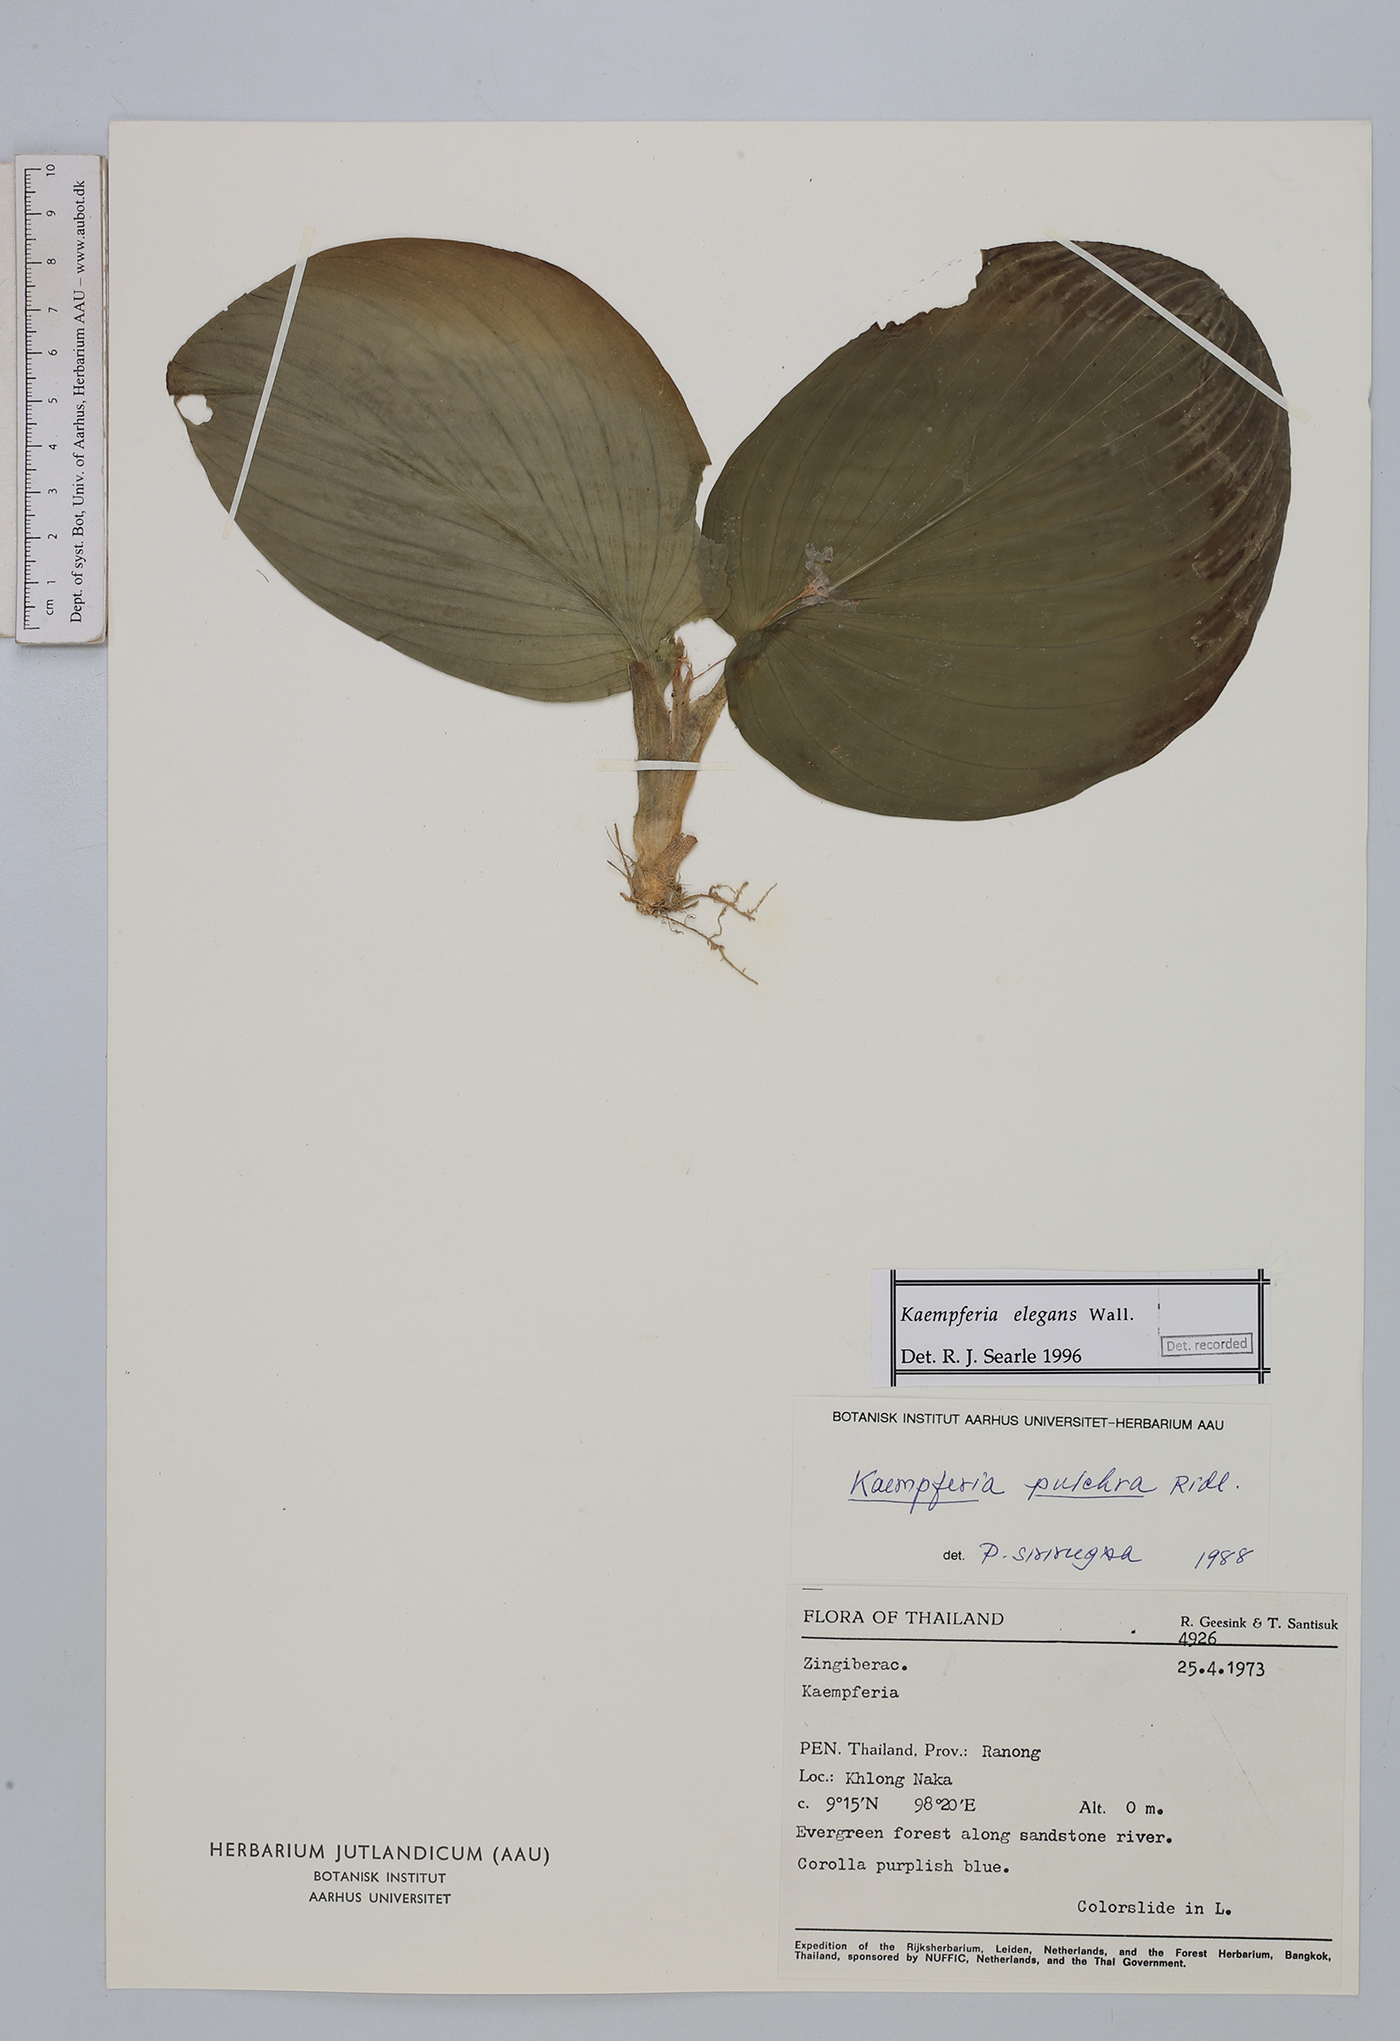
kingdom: Plantae
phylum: Tracheophyta
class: Liliopsida
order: Zingiberales
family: Zingiberaceae
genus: Kaempferia
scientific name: Kaempferia elegans
